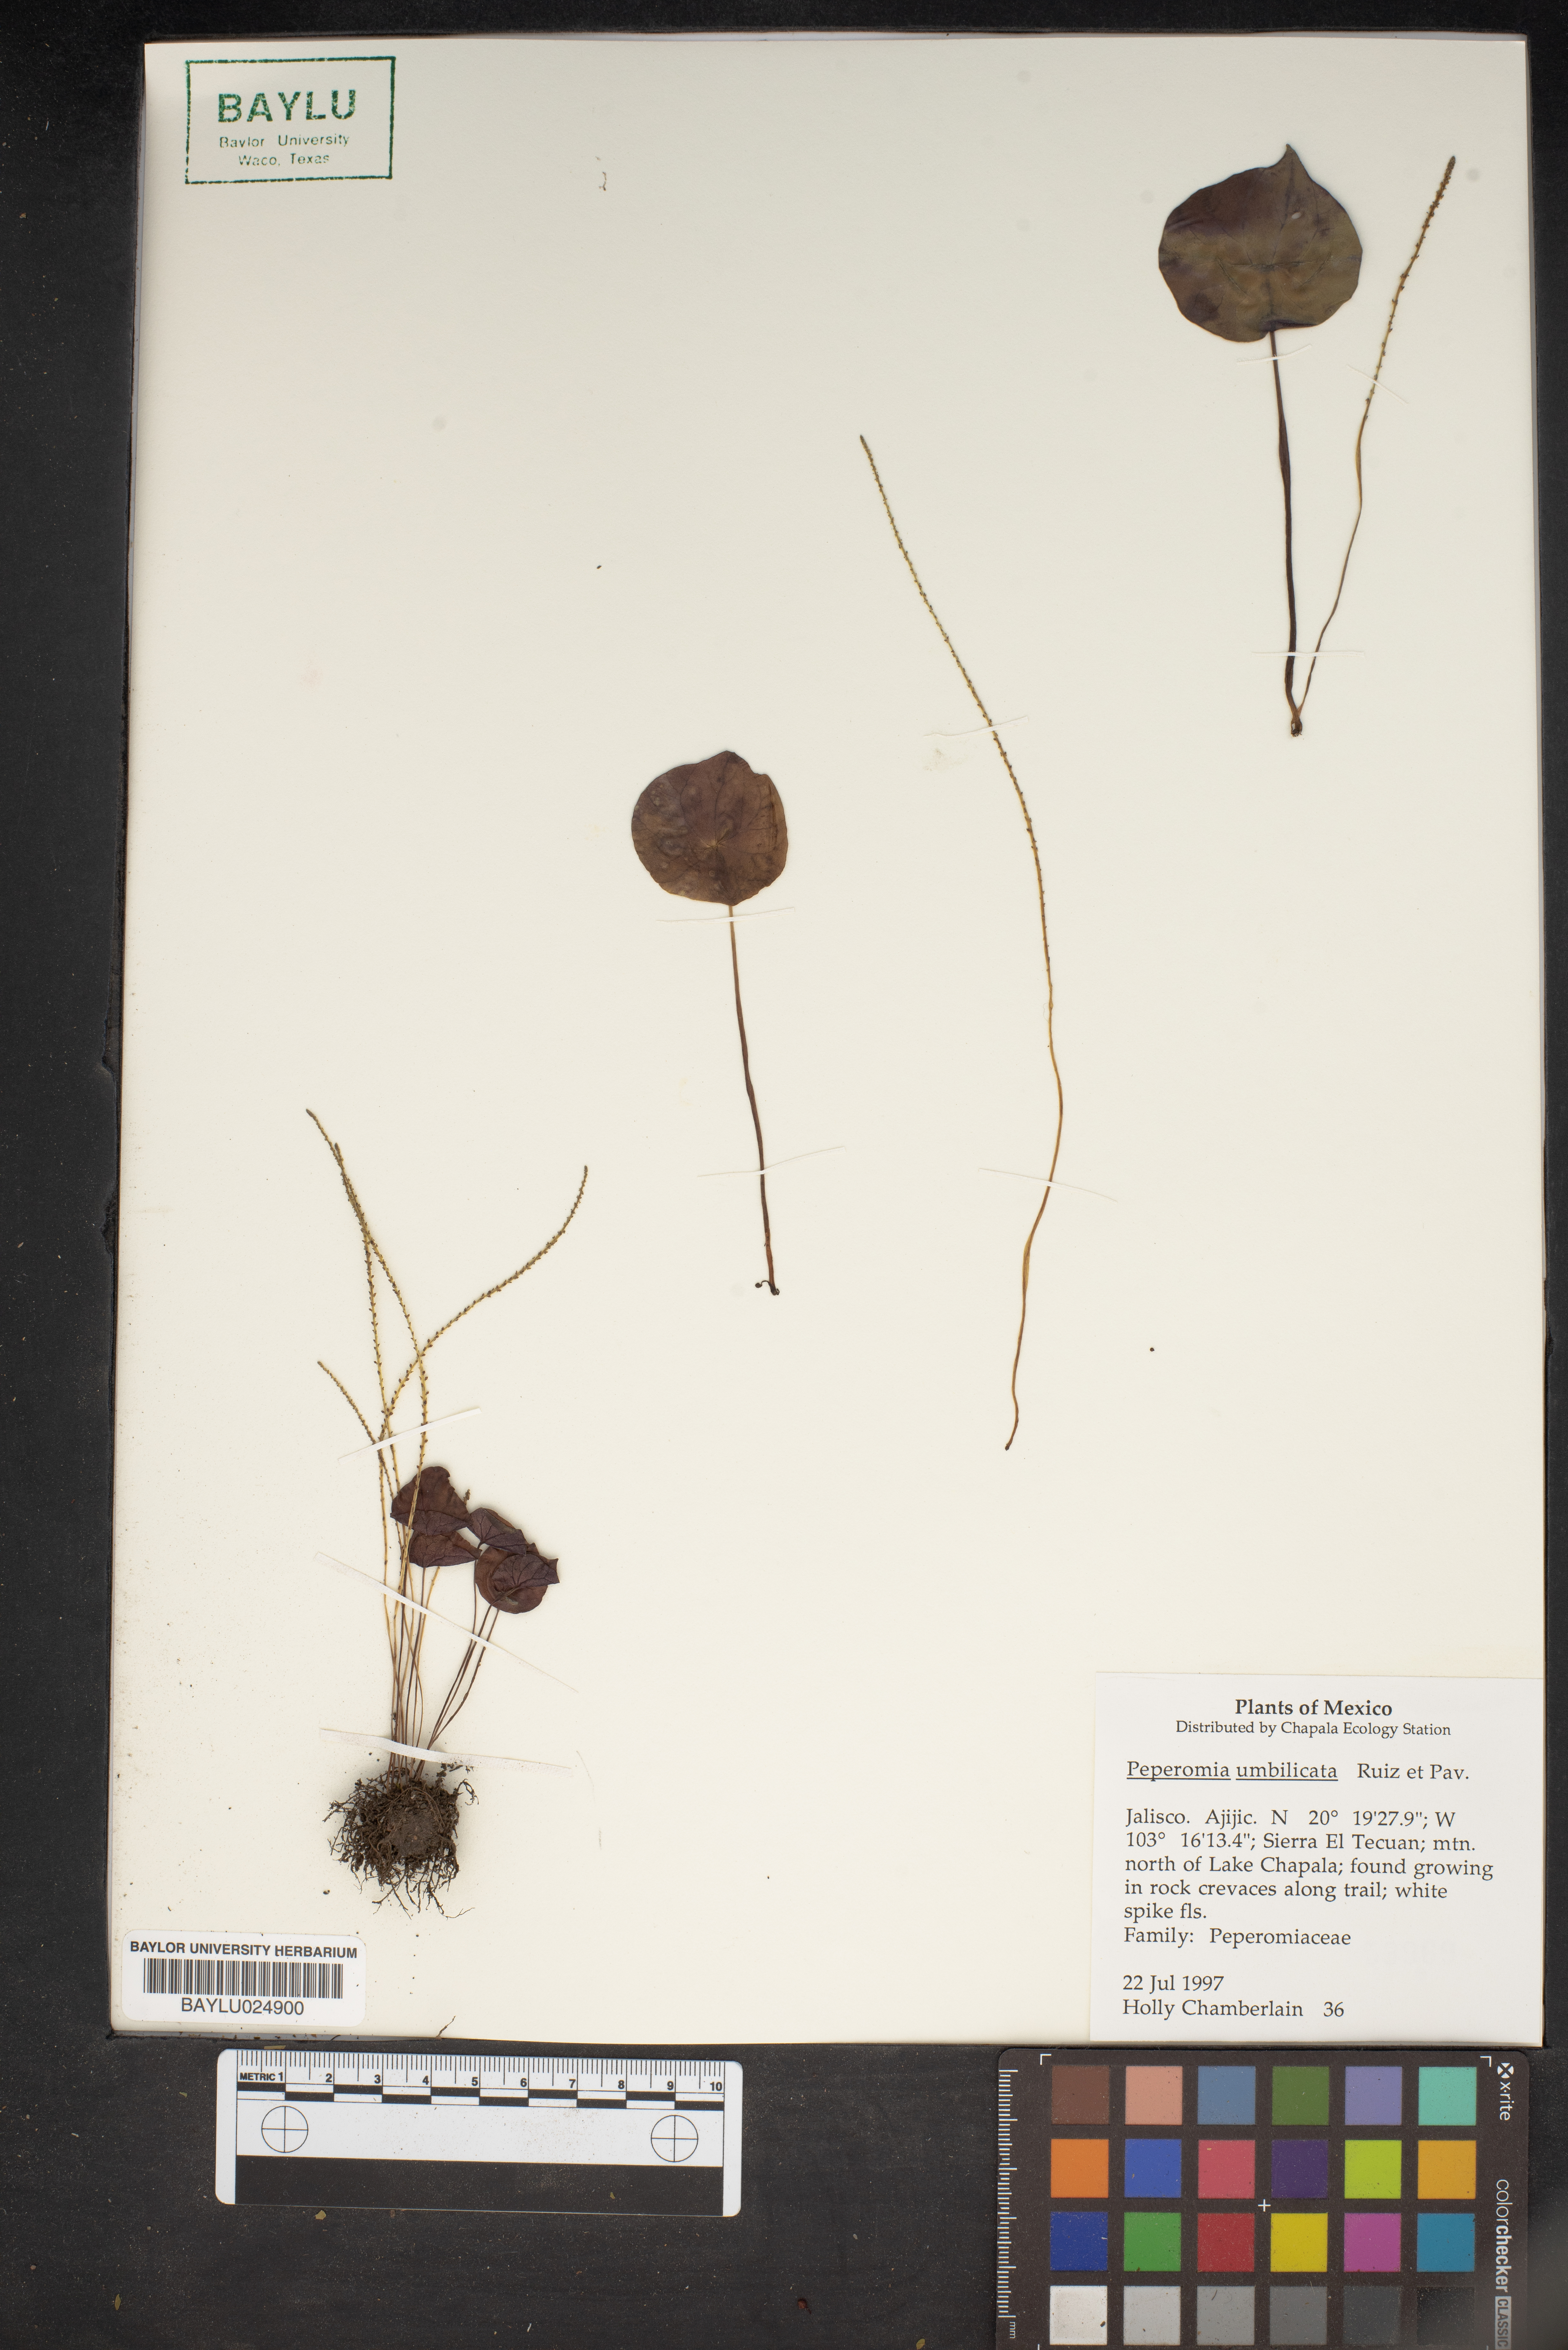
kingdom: Plantae
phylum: Tracheophyta
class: Magnoliopsida
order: Piperales
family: Piperaceae
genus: Peperomia
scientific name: Peperomia umbilicata
